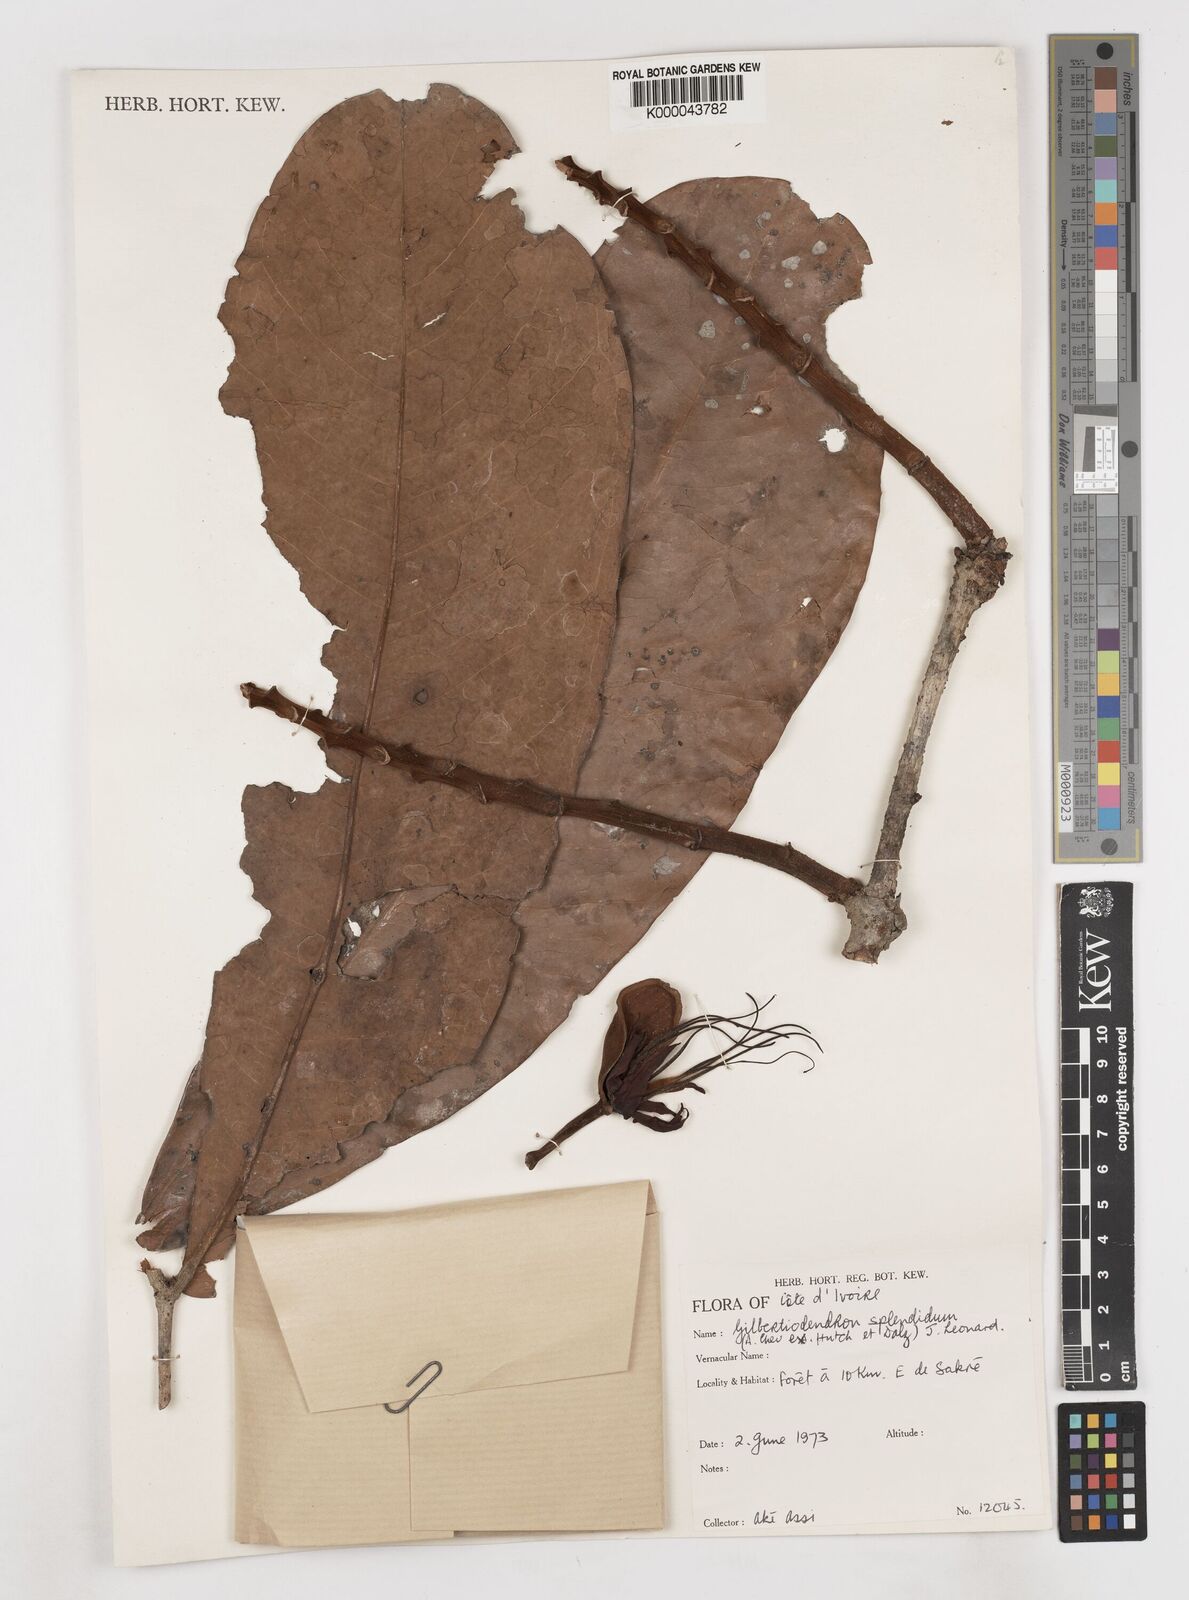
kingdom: Plantae
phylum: Tracheophyta
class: Magnoliopsida
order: Fabales
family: Fabaceae
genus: Gilbertiodendron
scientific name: Gilbertiodendron
